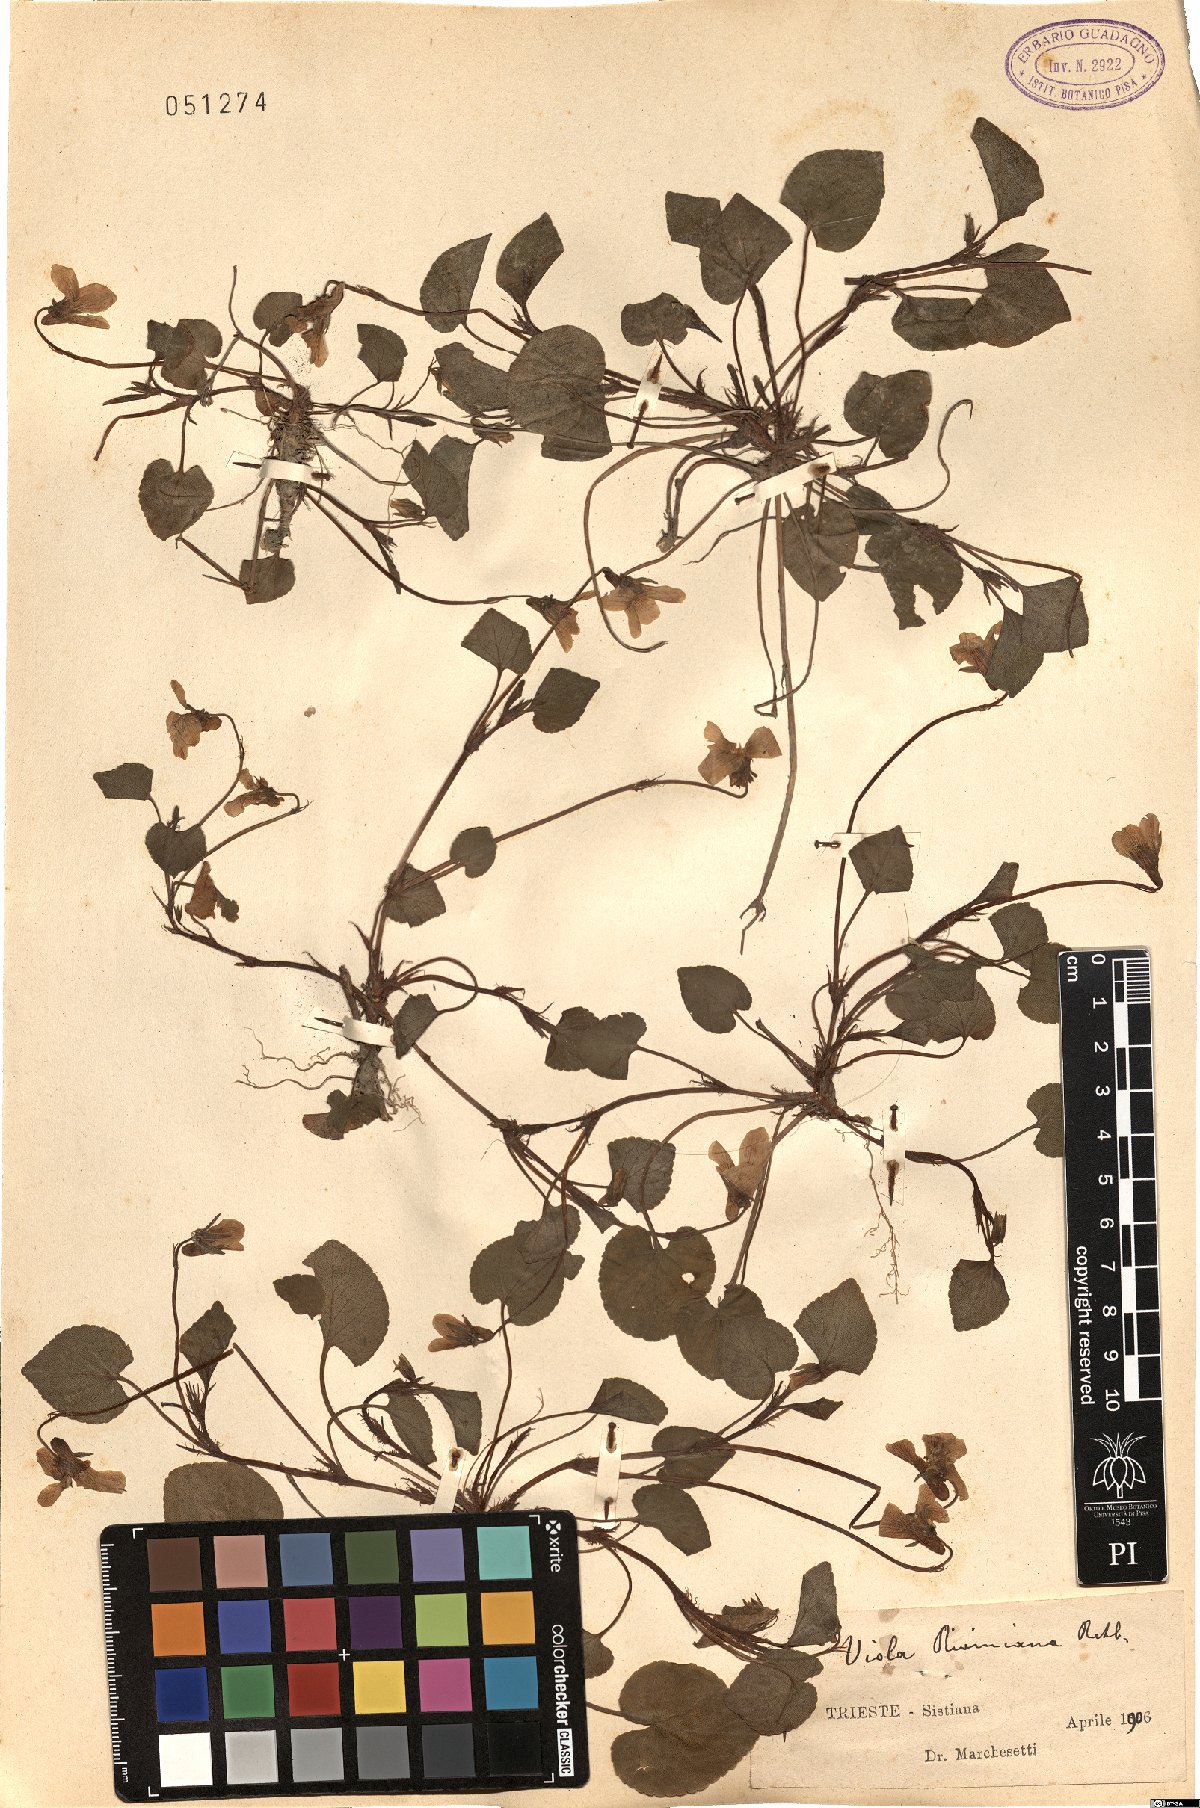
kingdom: Plantae
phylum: Tracheophyta
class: Magnoliopsida
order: Malpighiales
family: Violaceae
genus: Viola
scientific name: Viola riviniana
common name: Common dog-violet
